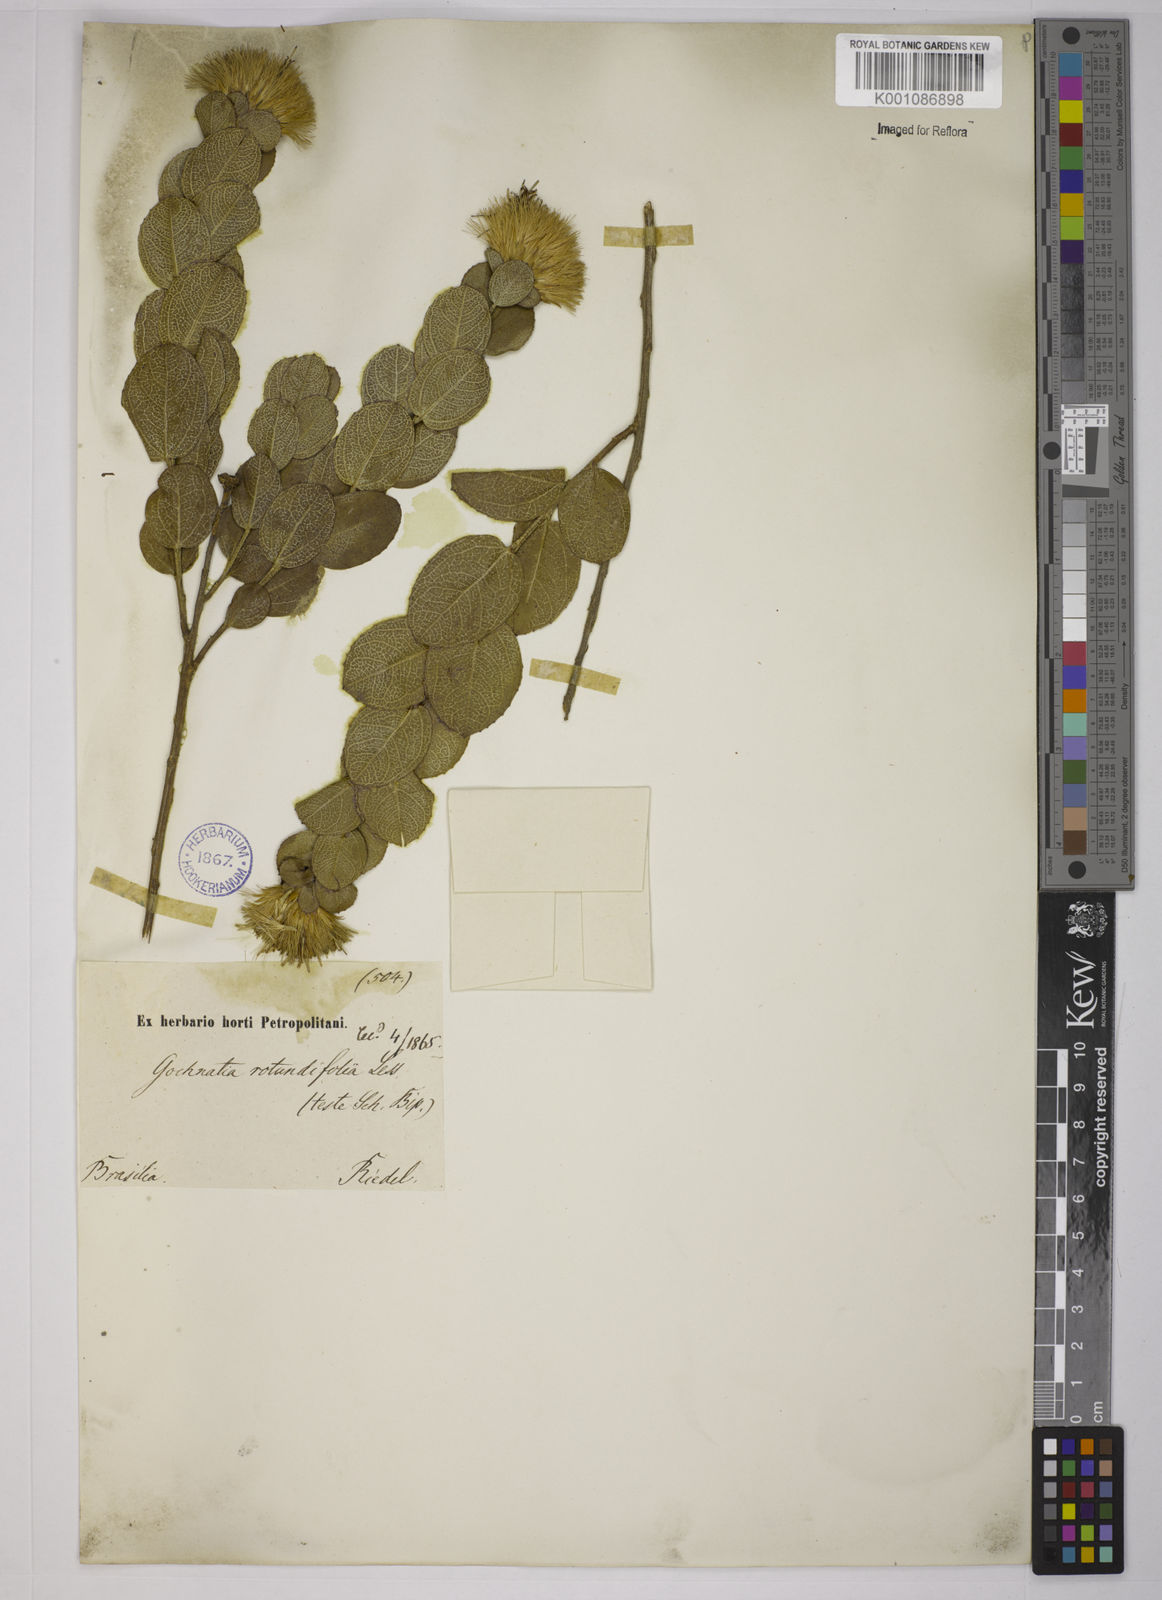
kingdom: Plantae
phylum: Tracheophyta
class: Magnoliopsida
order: Asterales
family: Asteraceae
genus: Vickia
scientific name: Vickia rotundifolia
